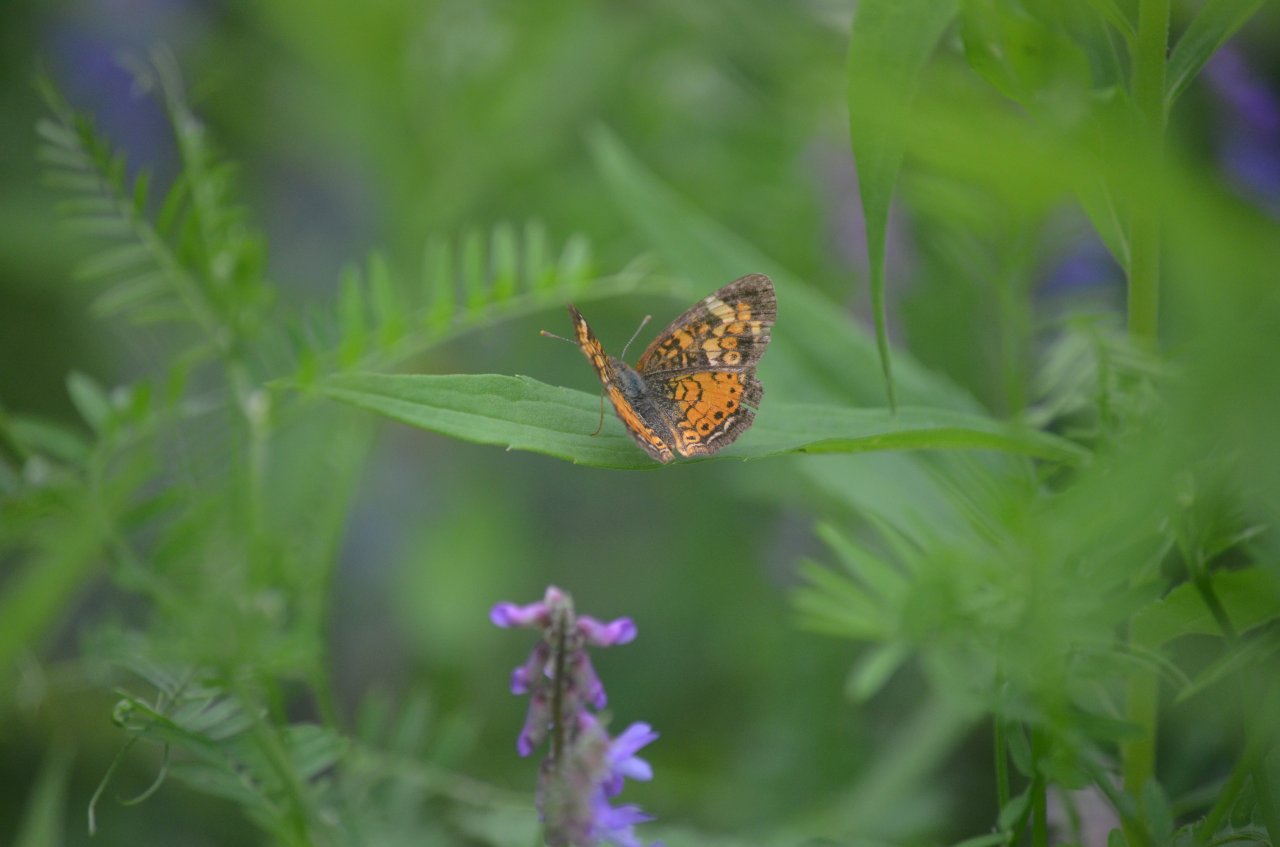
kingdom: Animalia
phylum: Arthropoda
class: Insecta
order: Lepidoptera
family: Nymphalidae
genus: Phyciodes
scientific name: Phyciodes tharos
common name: Northern Crescent
